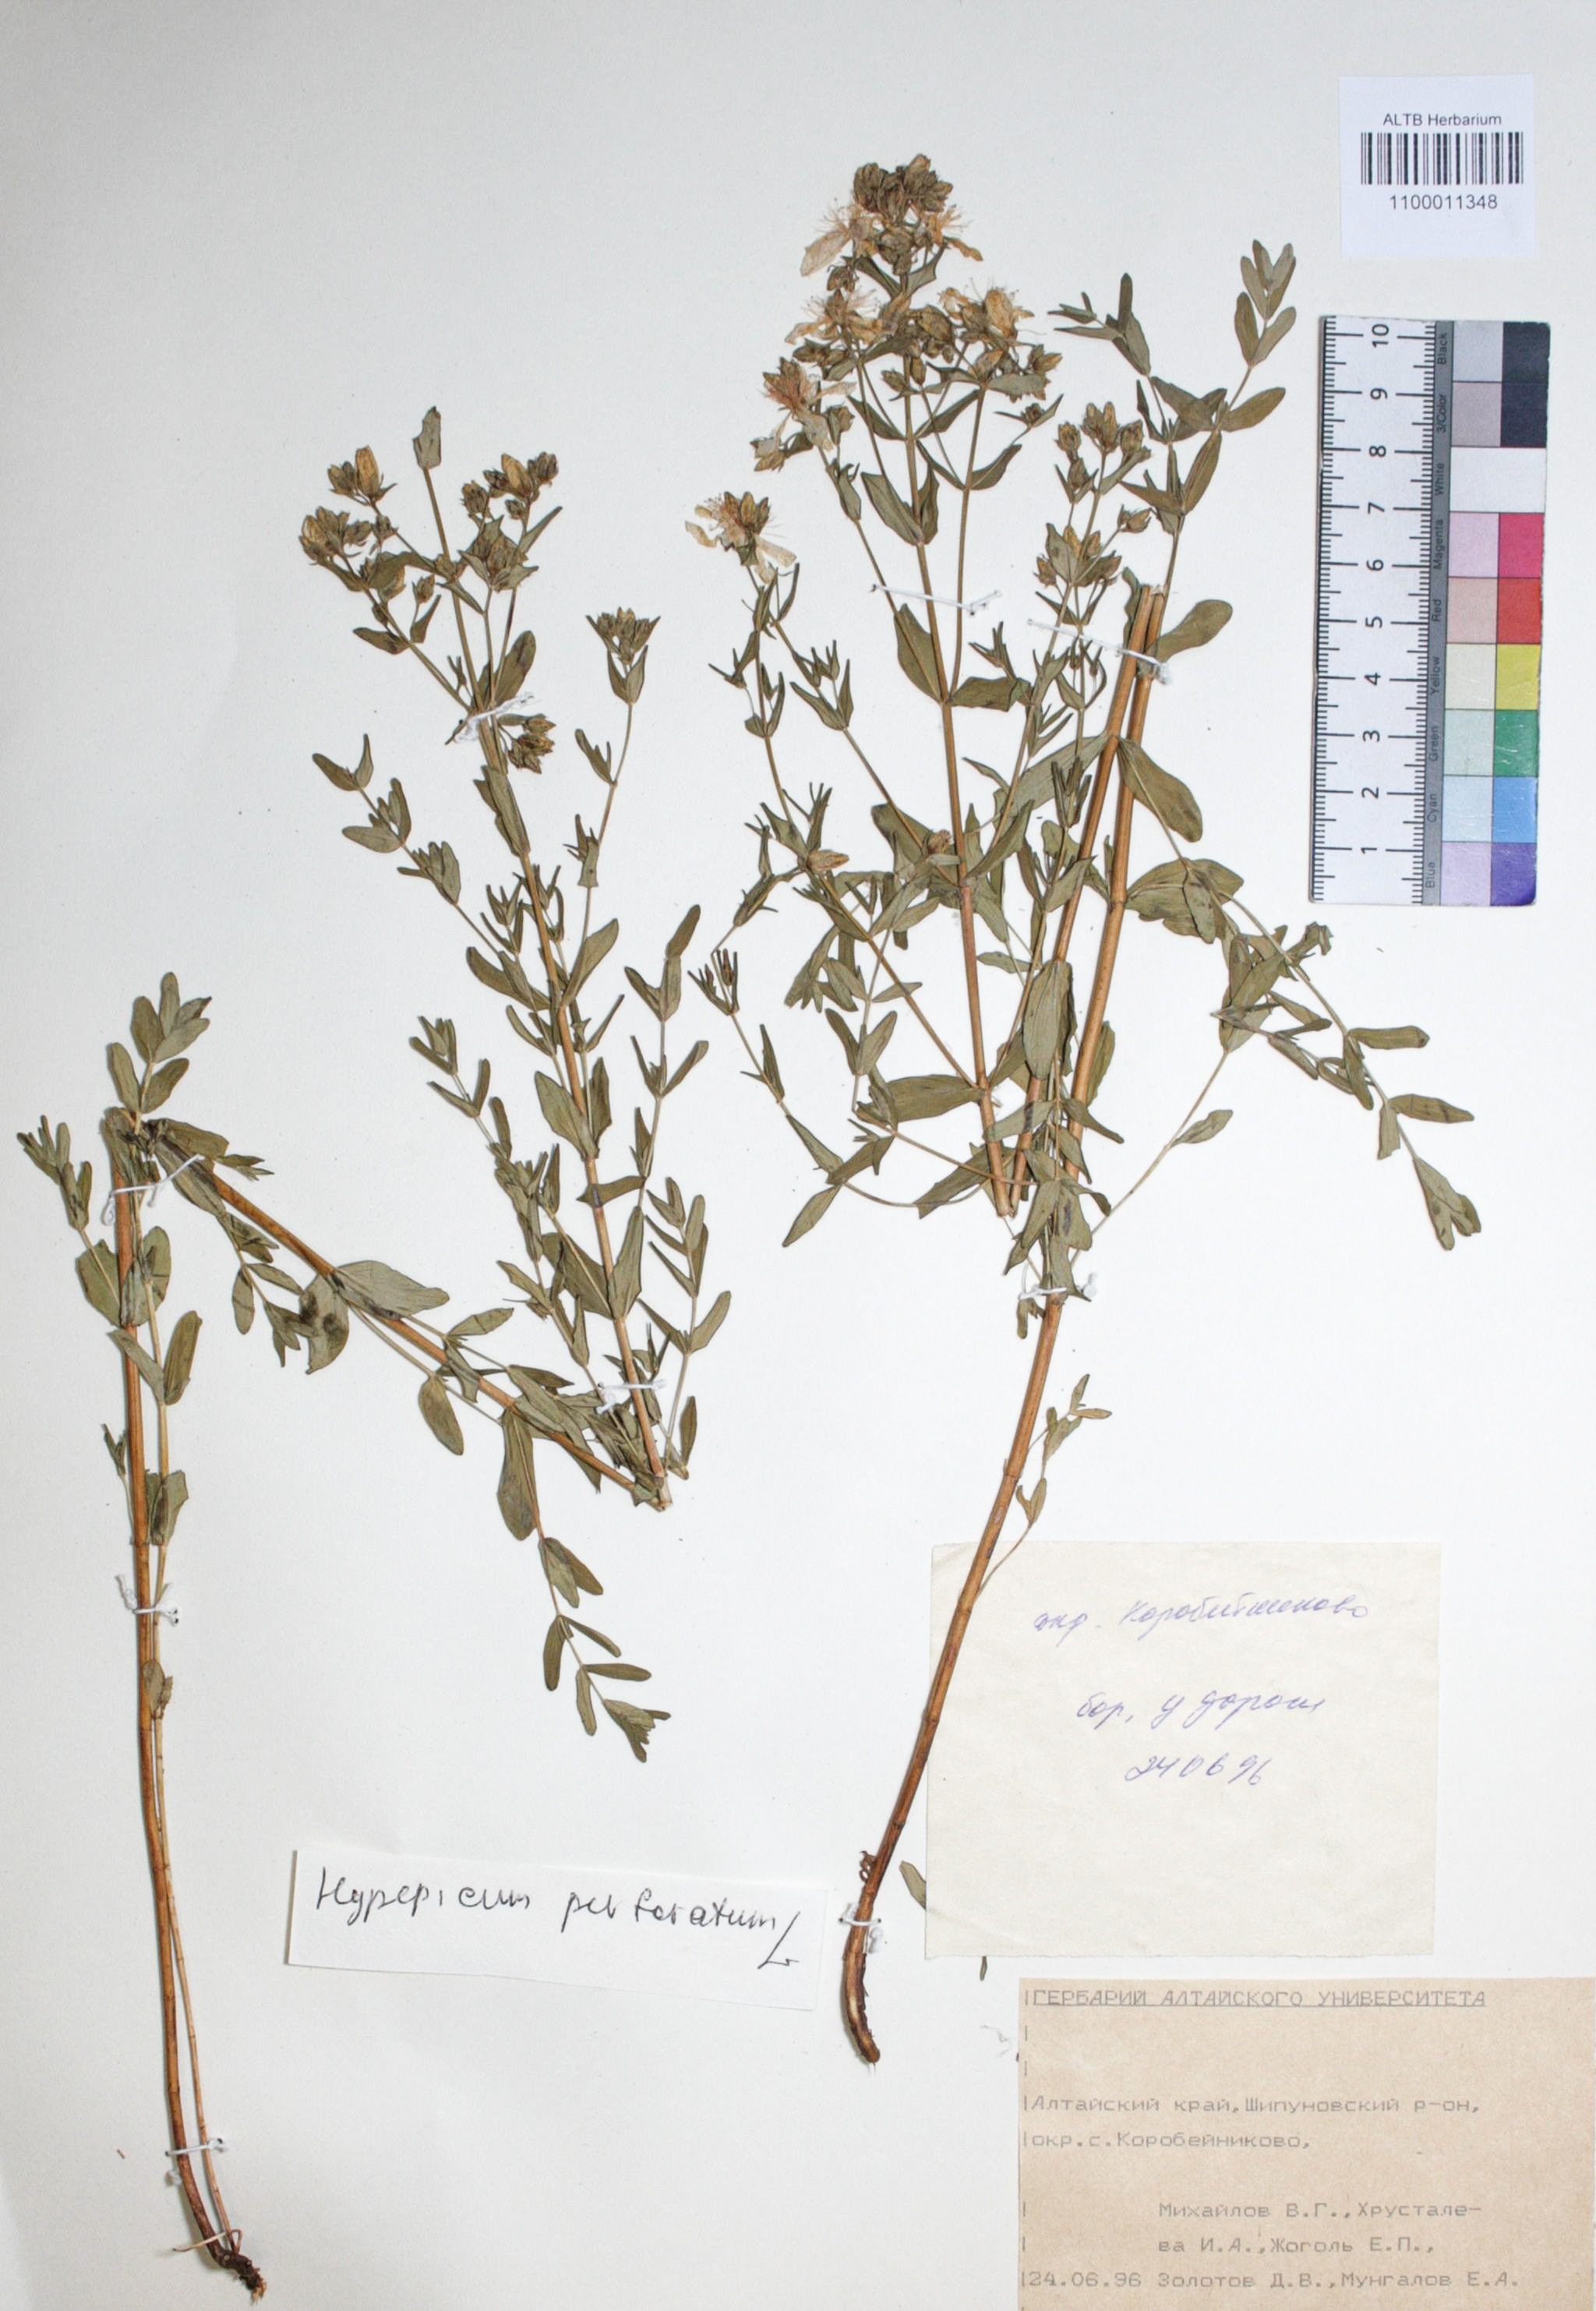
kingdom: Plantae
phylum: Tracheophyta
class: Magnoliopsida
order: Malpighiales
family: Hypericaceae
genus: Hypericum
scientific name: Hypericum perforatum
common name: Common st. johnswort
